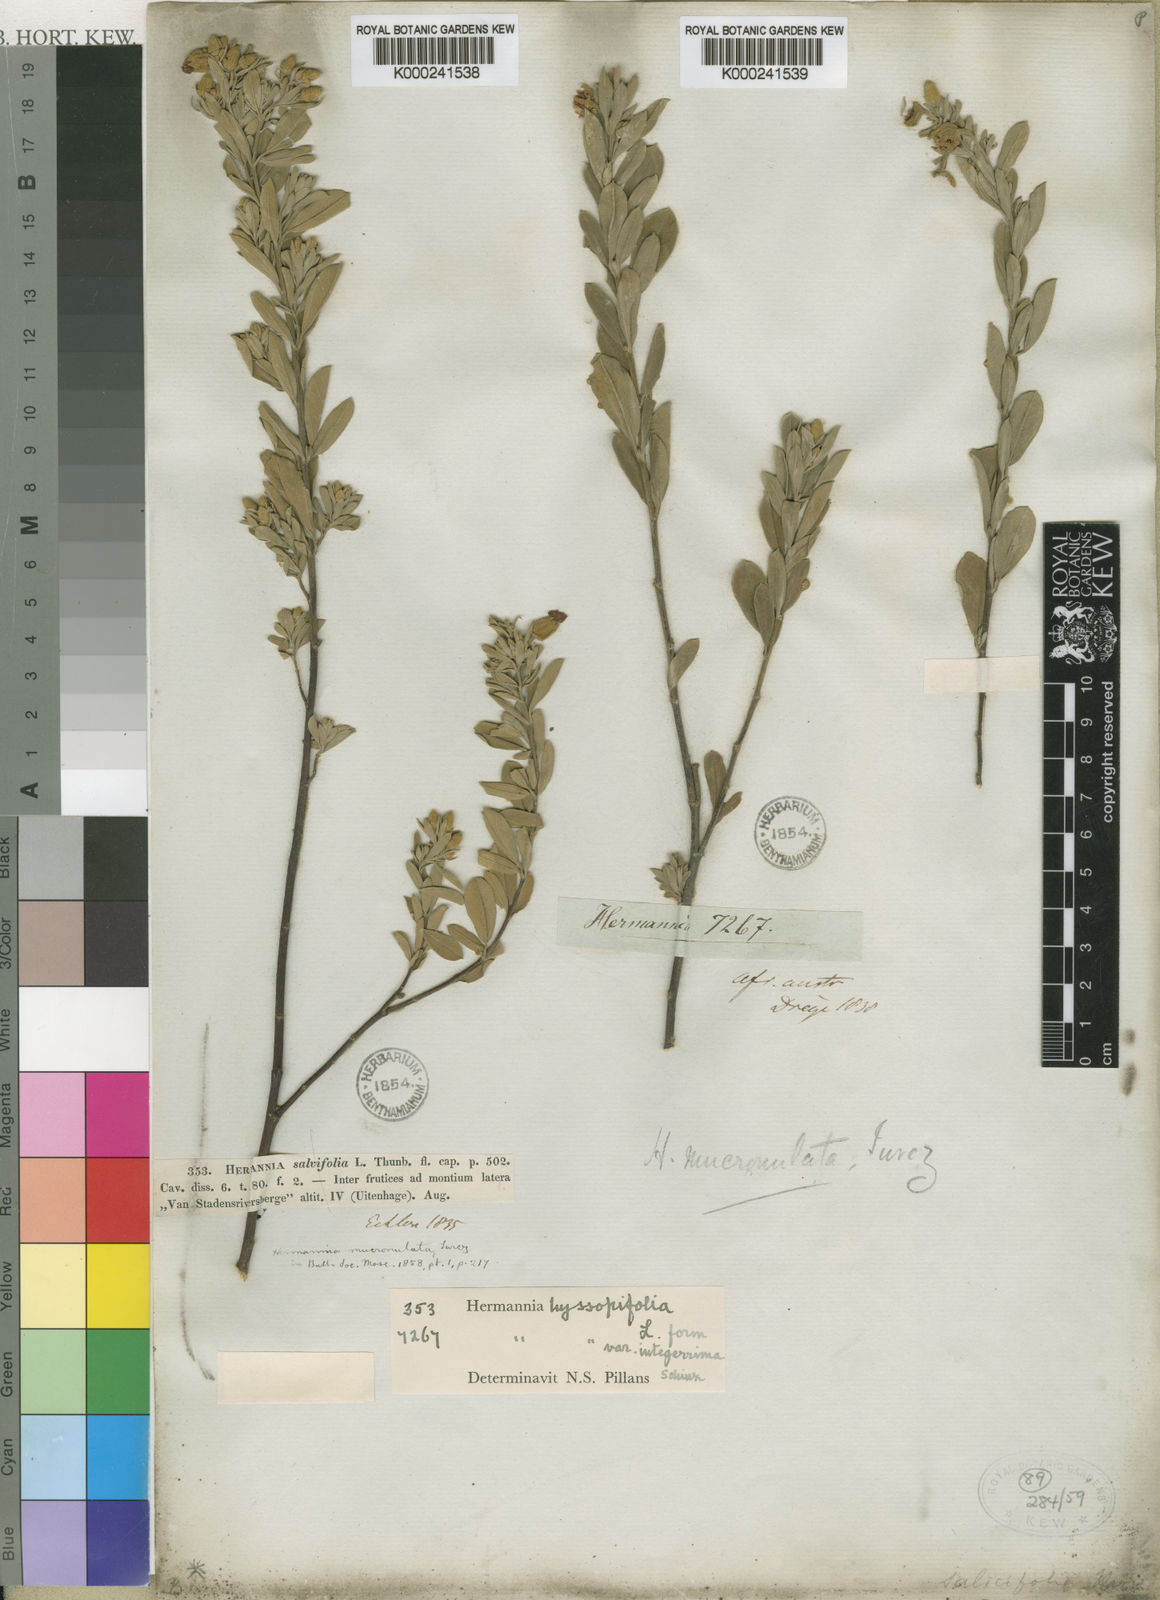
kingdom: Plantae
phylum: Tracheophyta
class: Magnoliopsida
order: Malvales
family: Malvaceae
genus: Hermannia
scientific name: Hermannia hyssopifolia
